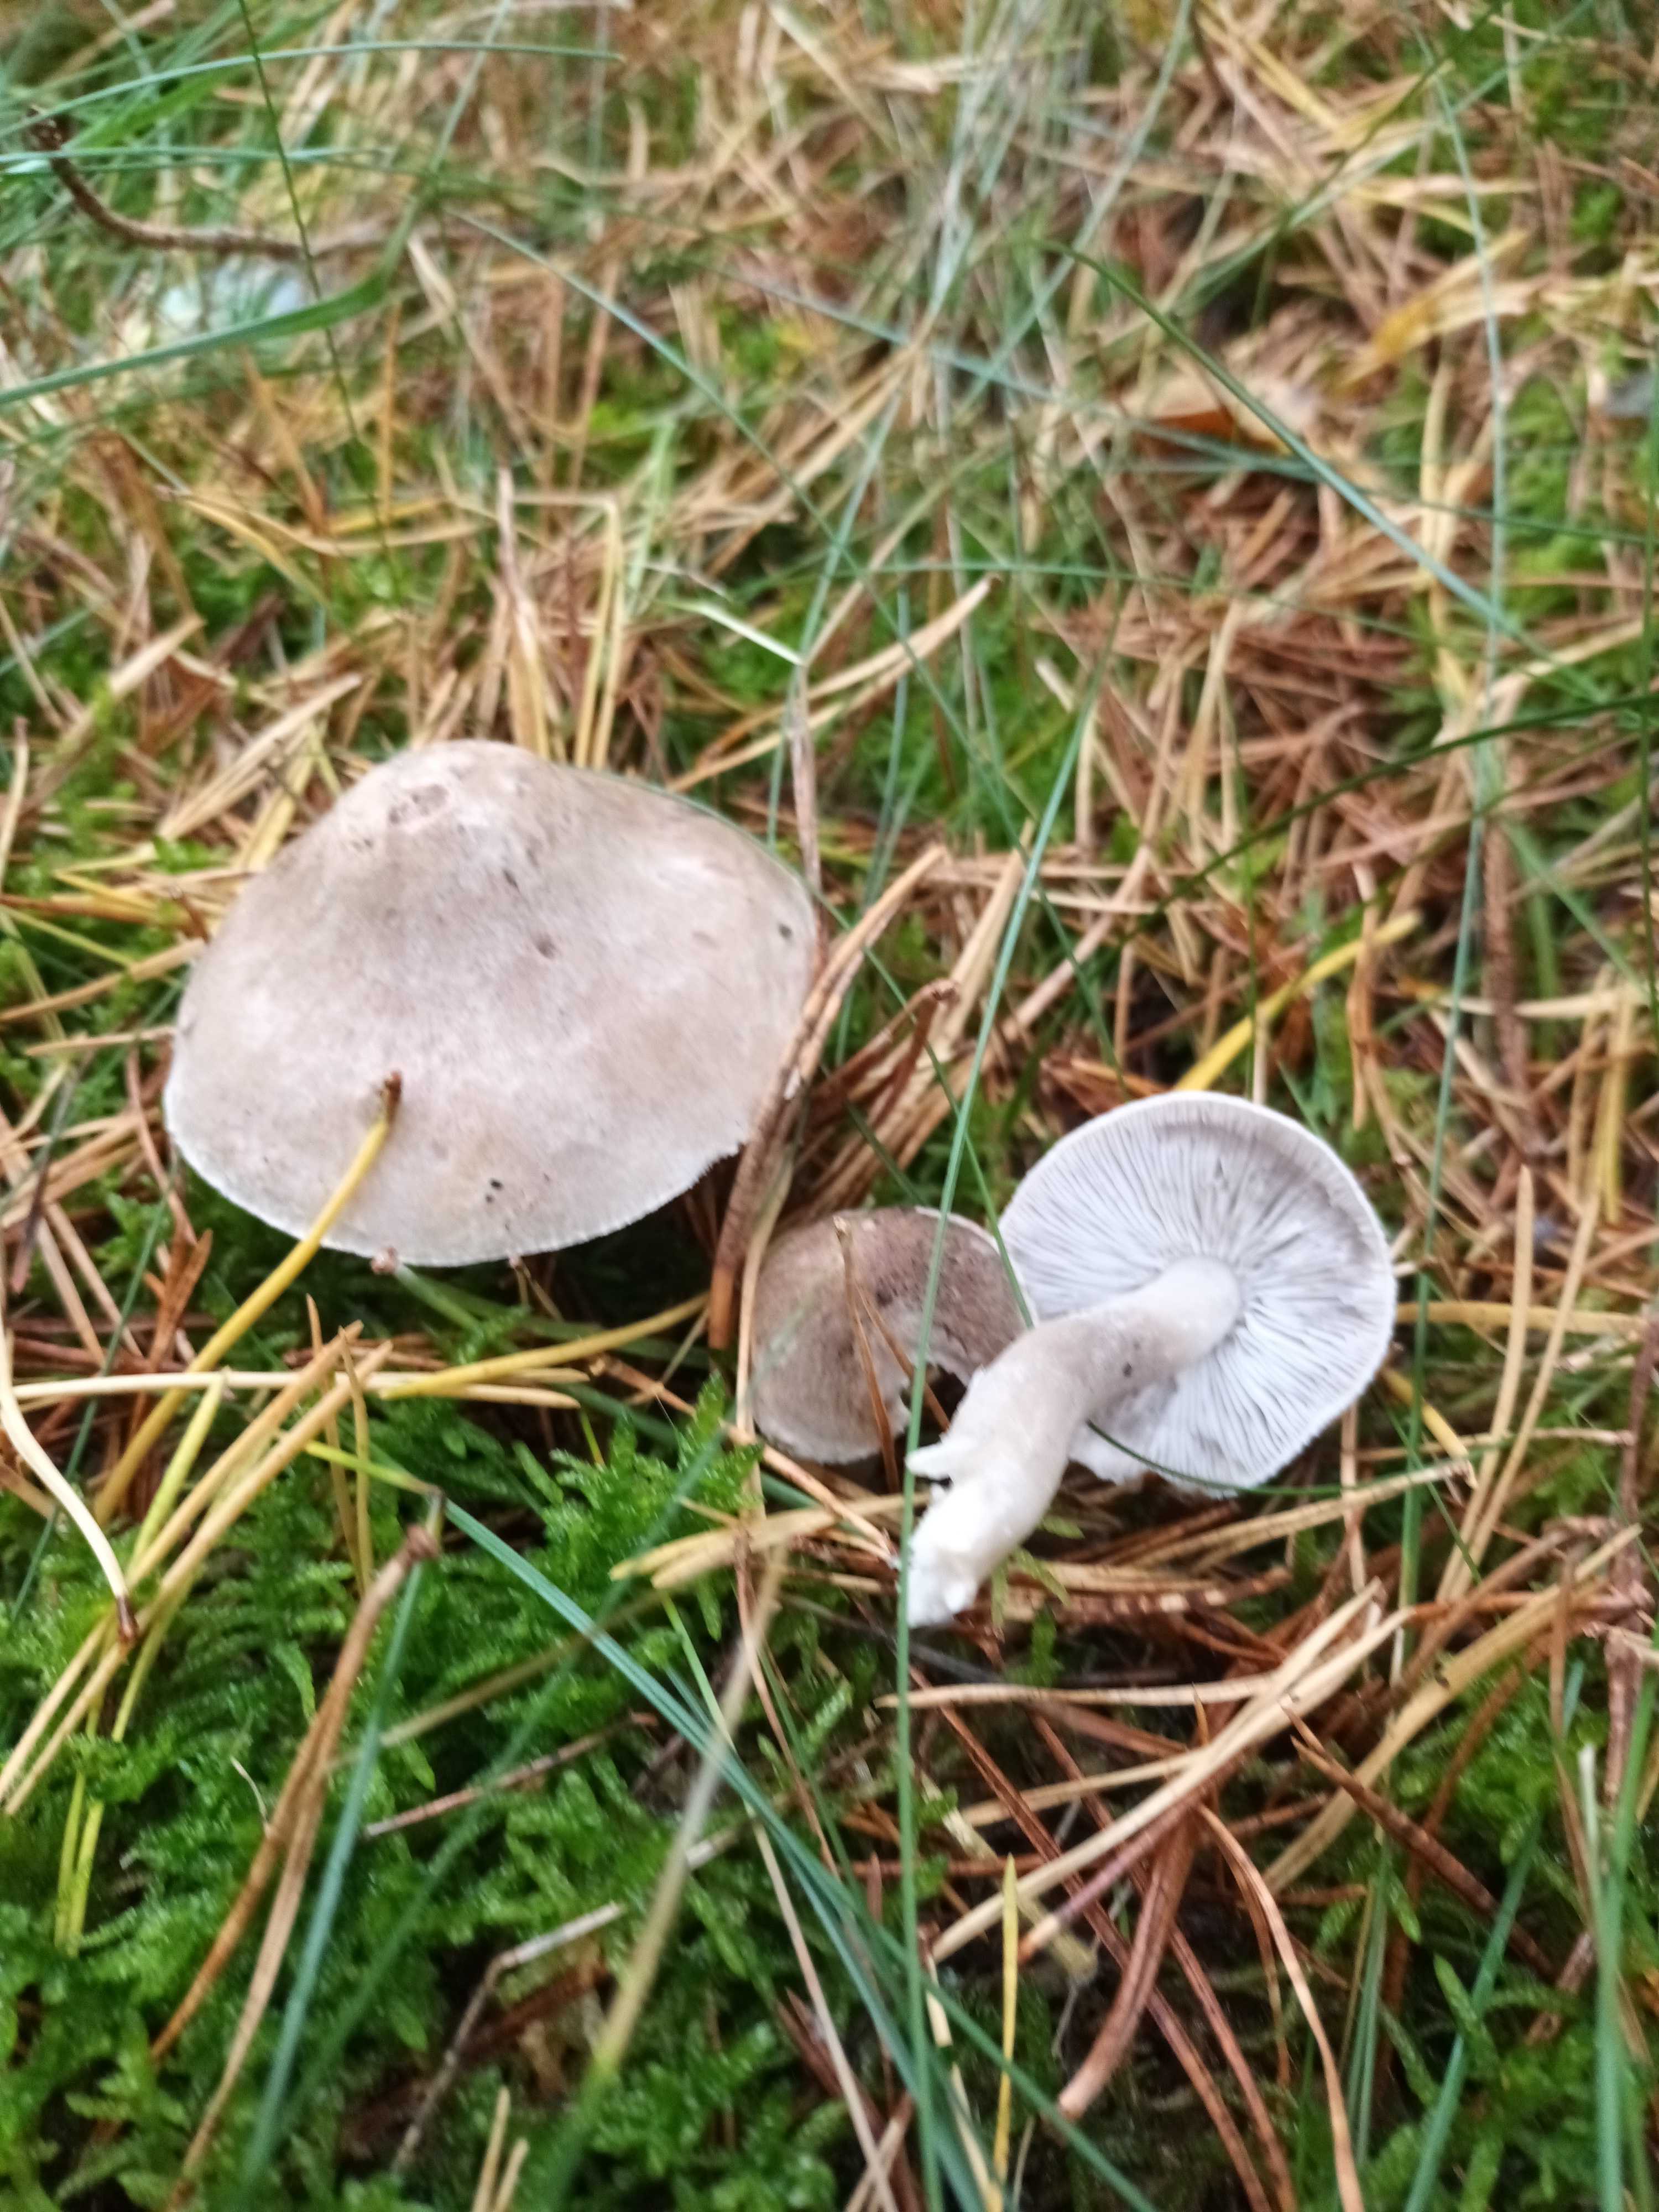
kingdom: Fungi
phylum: Basidiomycota
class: Agaricomycetes
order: Agaricales
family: Tricholomataceae
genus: Tricholoma
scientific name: Tricholoma
